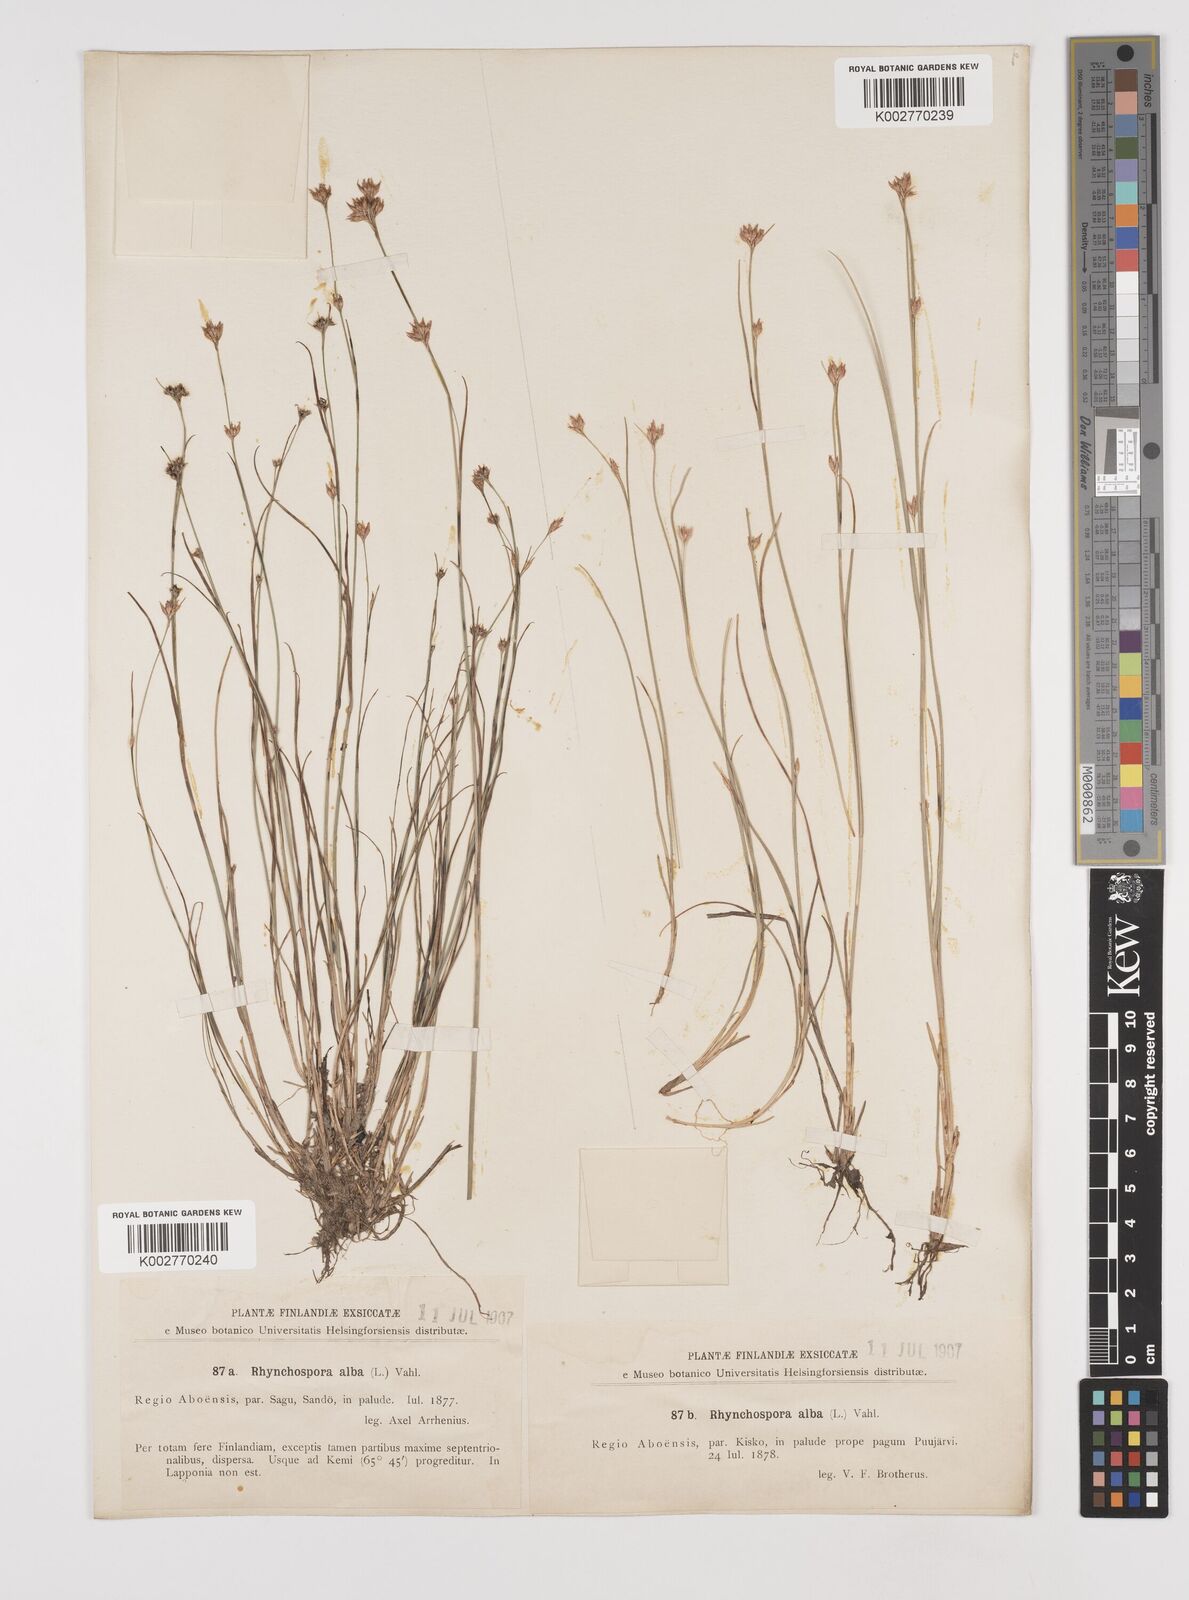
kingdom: Plantae
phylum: Tracheophyta
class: Liliopsida
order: Poales
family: Cyperaceae
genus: Rhynchospora
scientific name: Rhynchospora alba
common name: White beak-sedge
